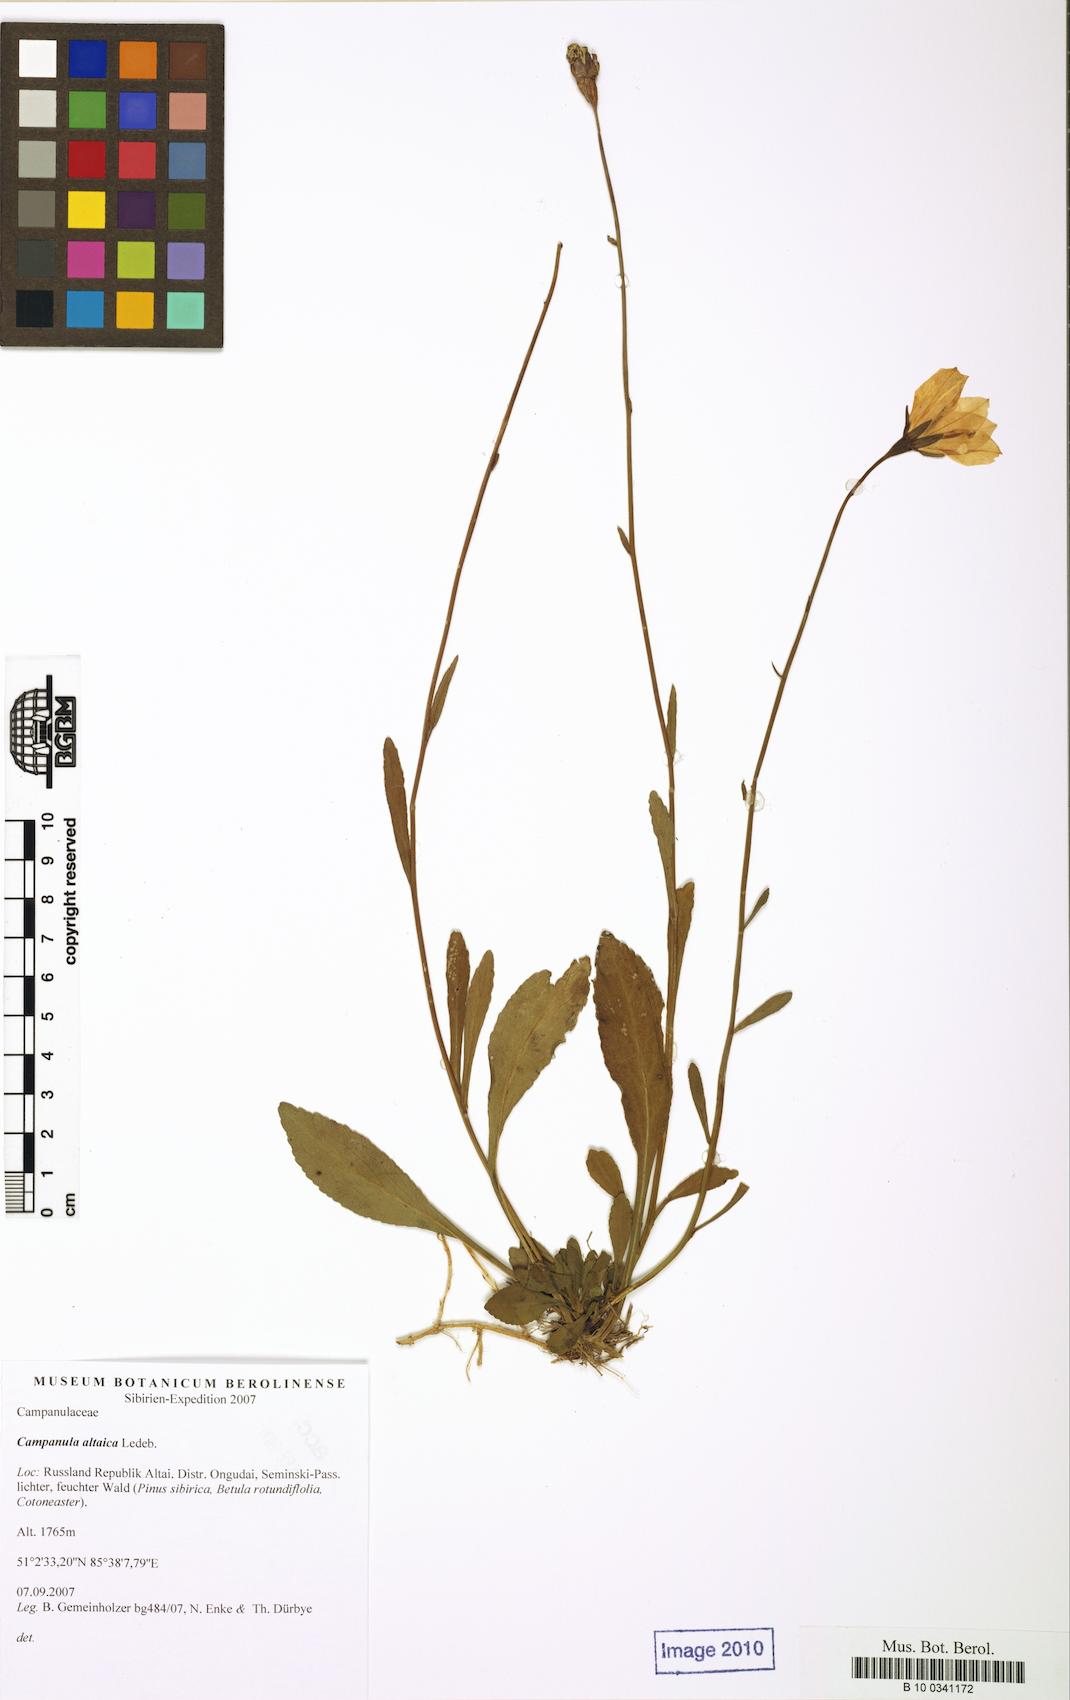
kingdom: Plantae
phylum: Tracheophyta
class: Magnoliopsida
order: Asterales
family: Campanulaceae
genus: Campanula
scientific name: Campanula stevenii
